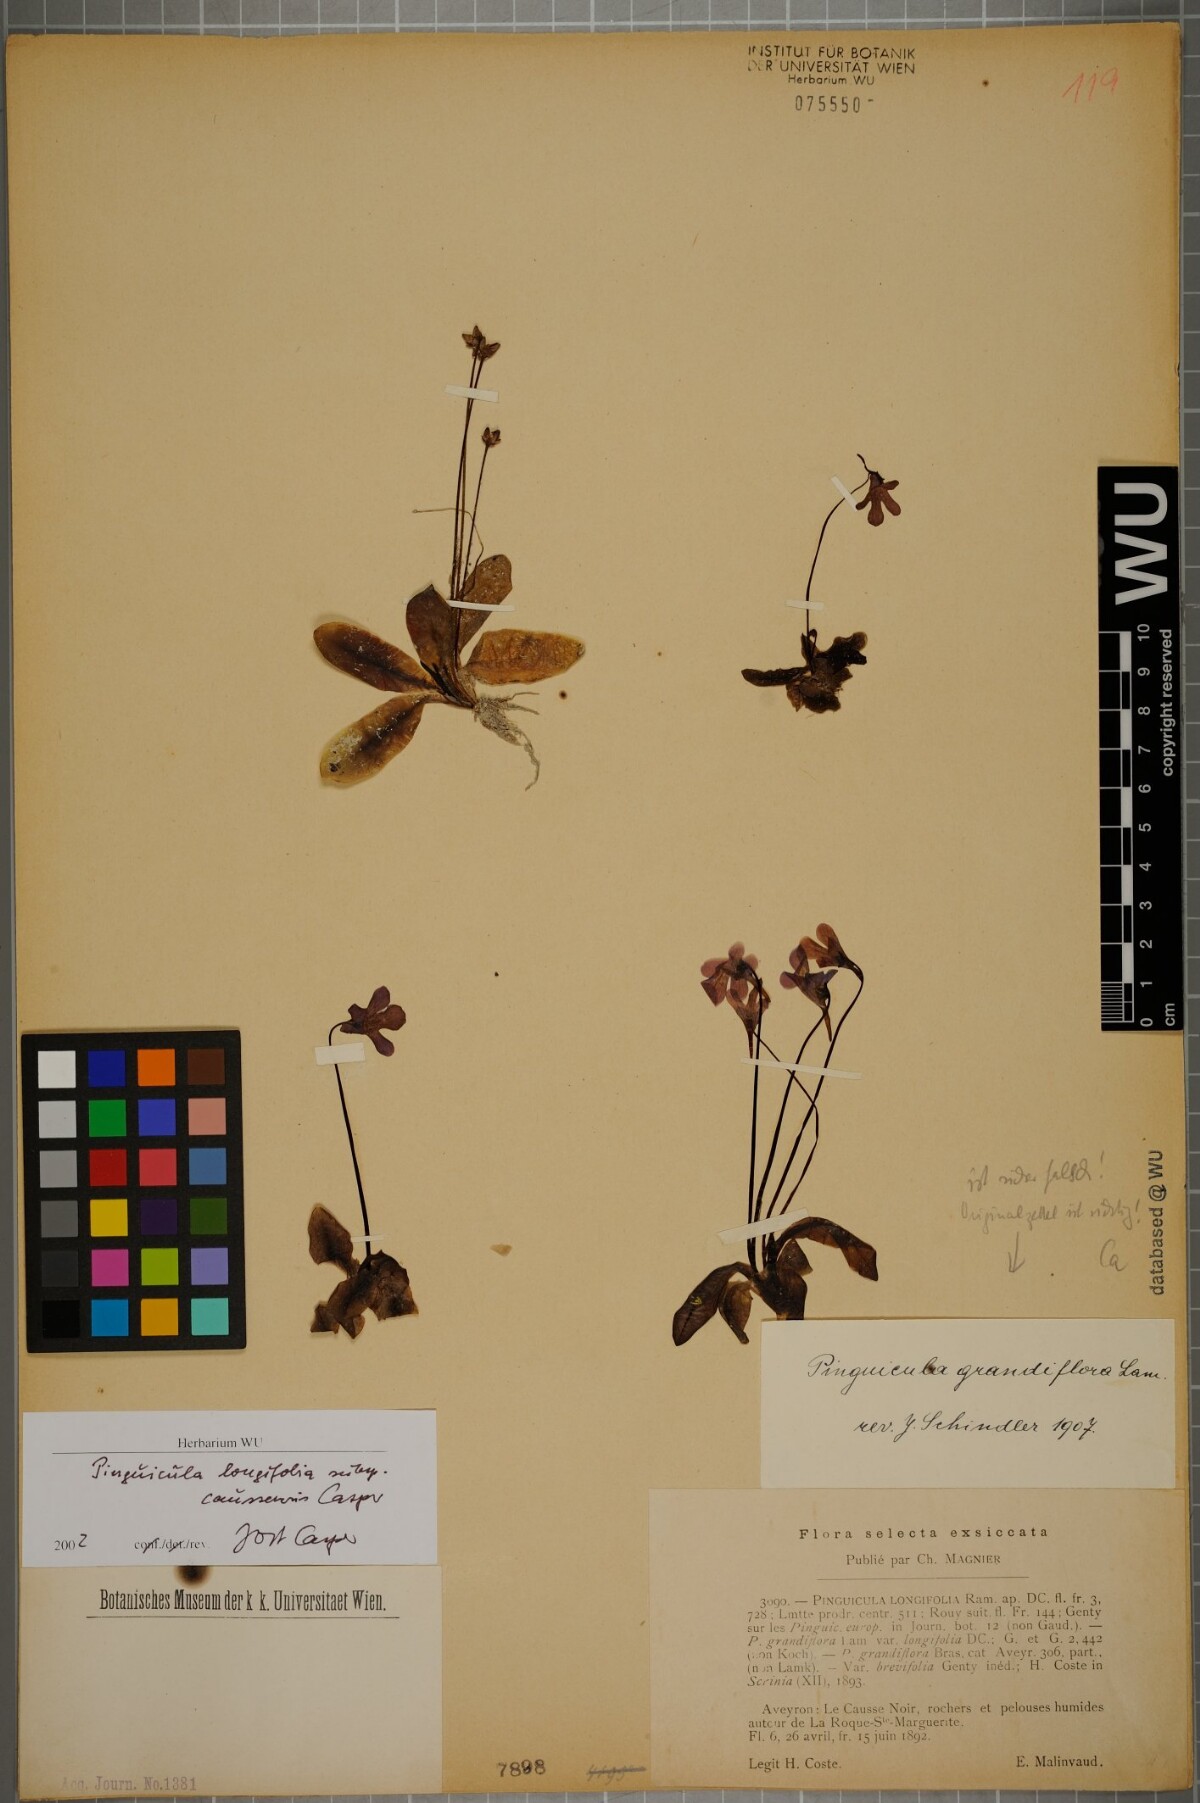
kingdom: Plantae
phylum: Tracheophyta
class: Magnoliopsida
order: Lamiales
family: Lentibulariaceae
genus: Pinguicula
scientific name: Pinguicula caussensis
